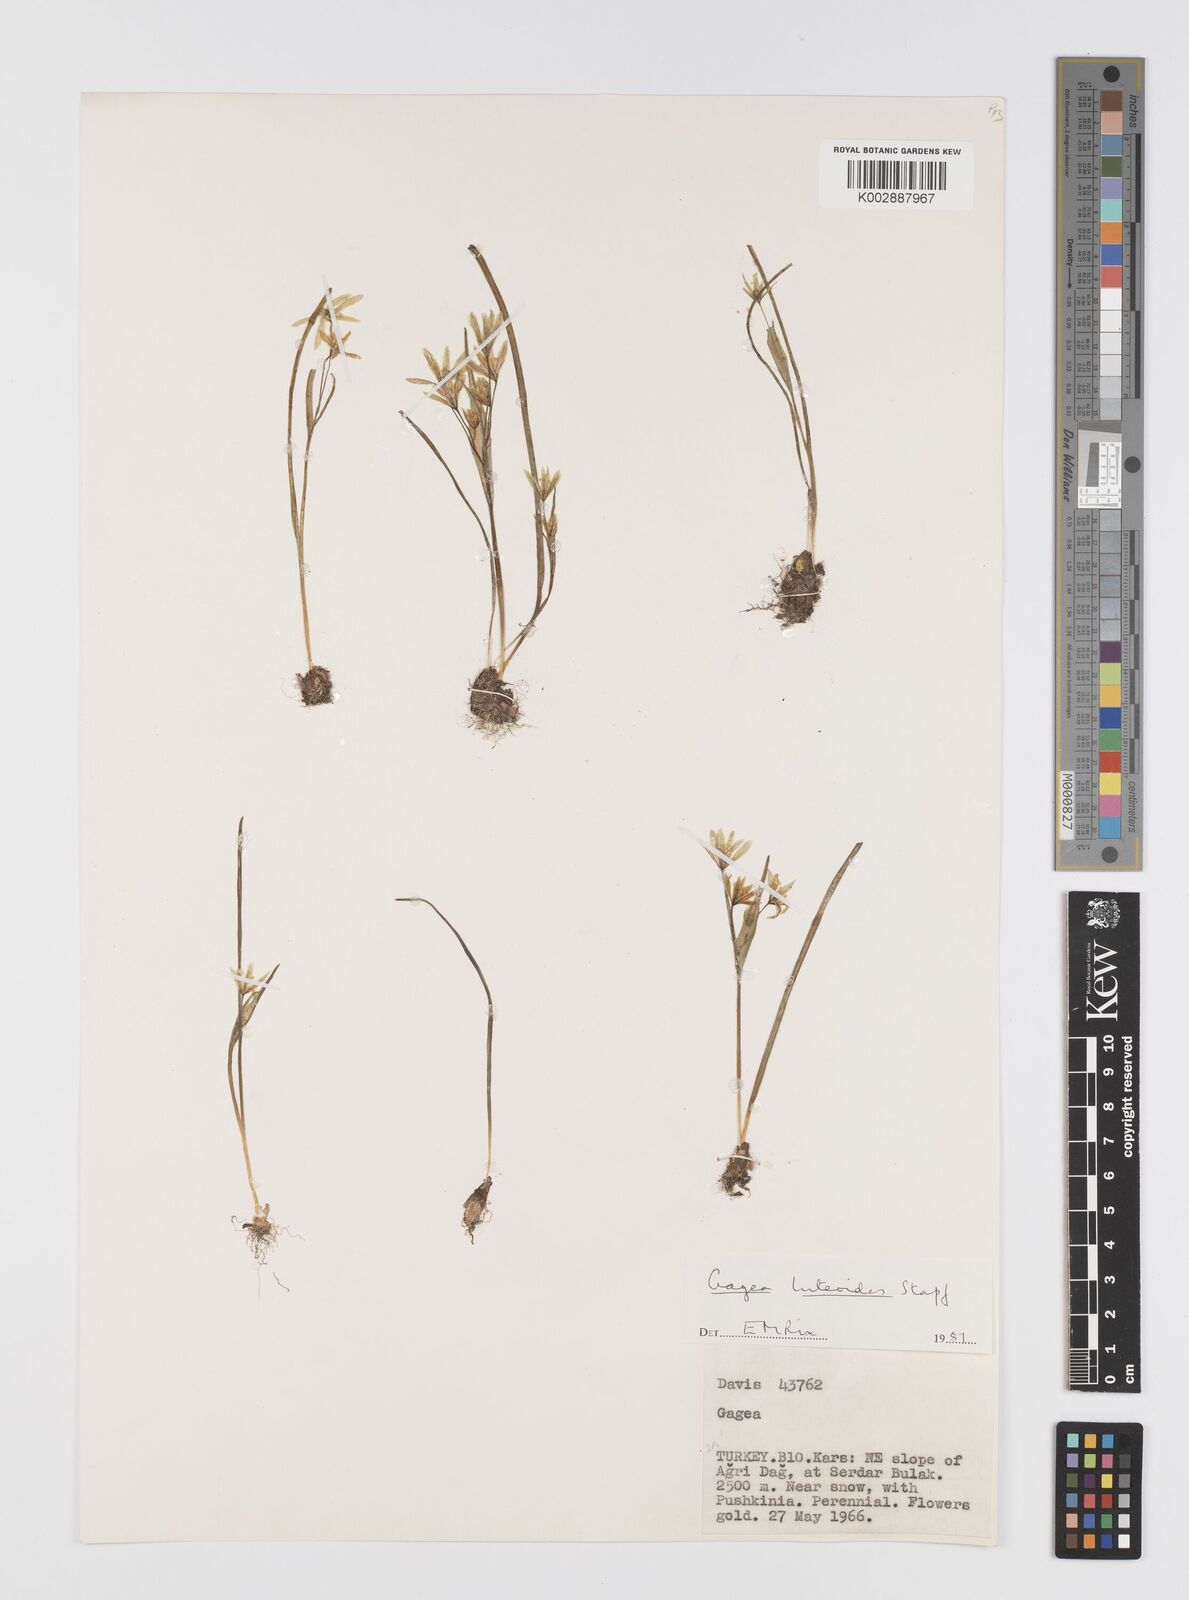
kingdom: Plantae
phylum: Tracheophyta
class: Liliopsida
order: Liliales
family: Liliaceae
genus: Gagea
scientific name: Gagea luteoides
